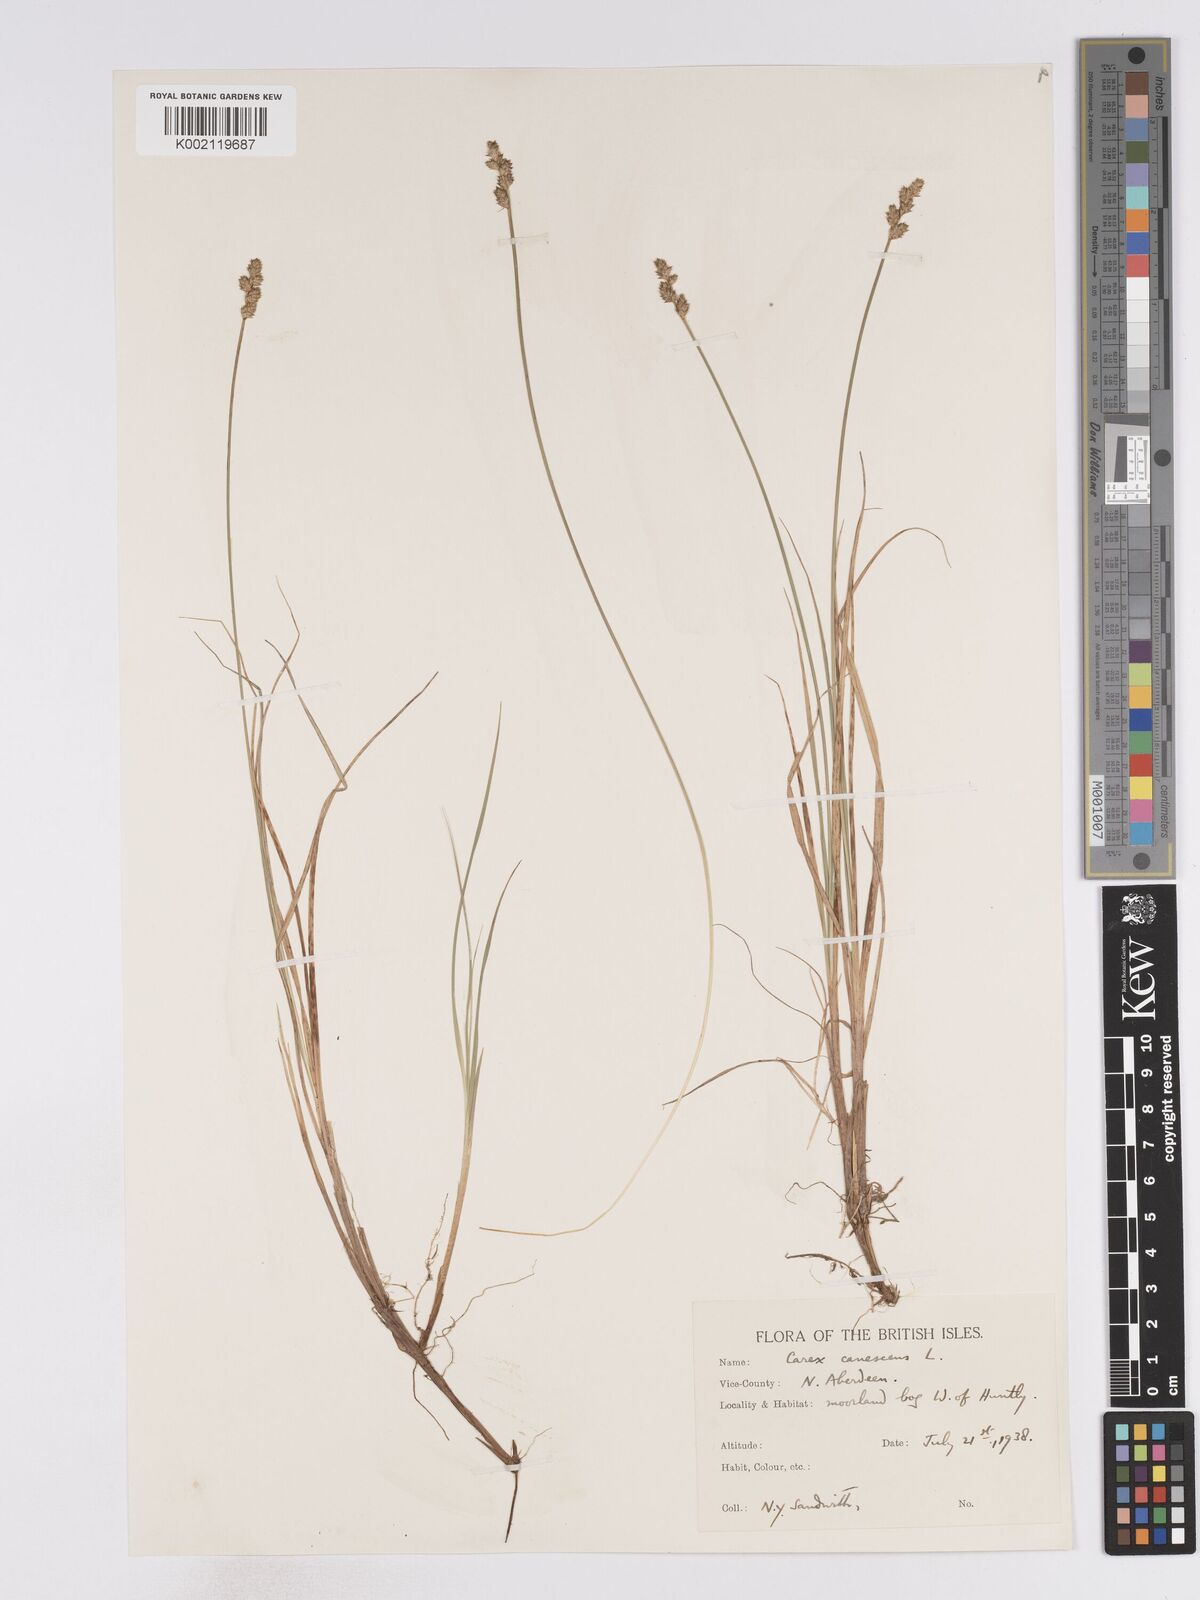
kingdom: Plantae
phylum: Tracheophyta
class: Liliopsida
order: Poales
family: Cyperaceae
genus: Carex
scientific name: Carex curta
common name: White sedge
